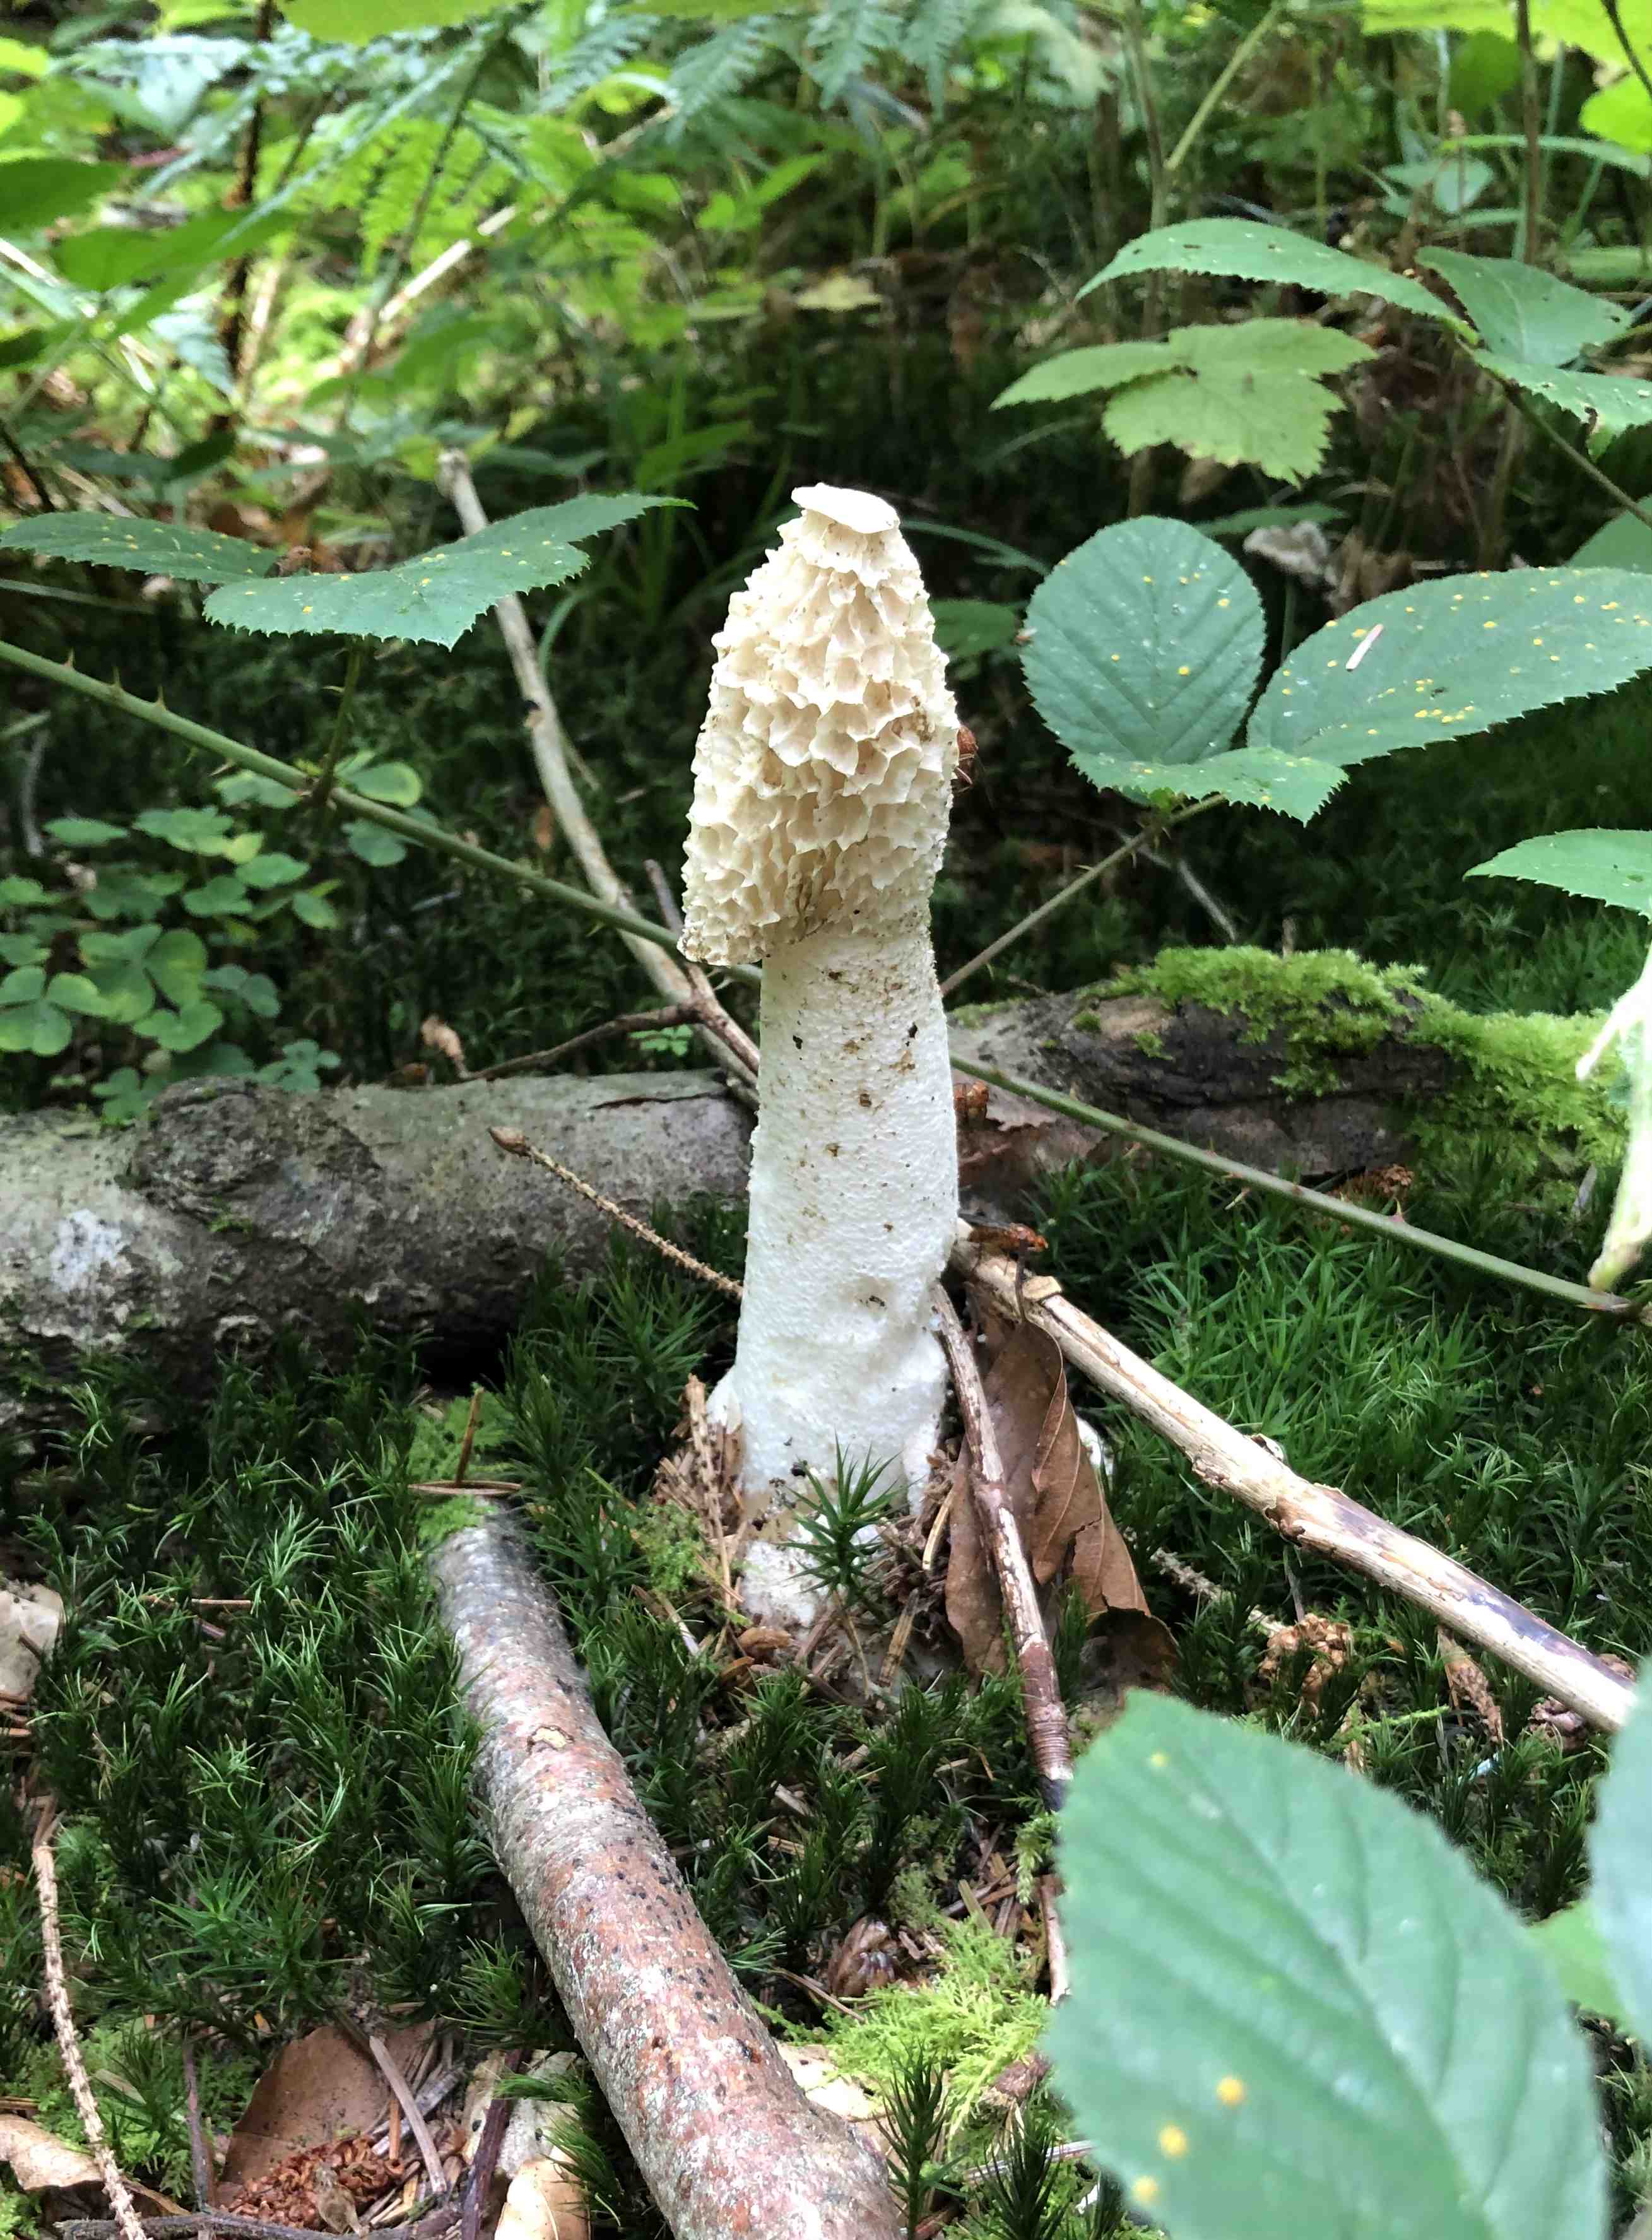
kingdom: Fungi
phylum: Basidiomycota
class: Agaricomycetes
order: Phallales
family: Phallaceae
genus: Phallus
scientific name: Phallus impudicus
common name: almindelig stinksvamp
